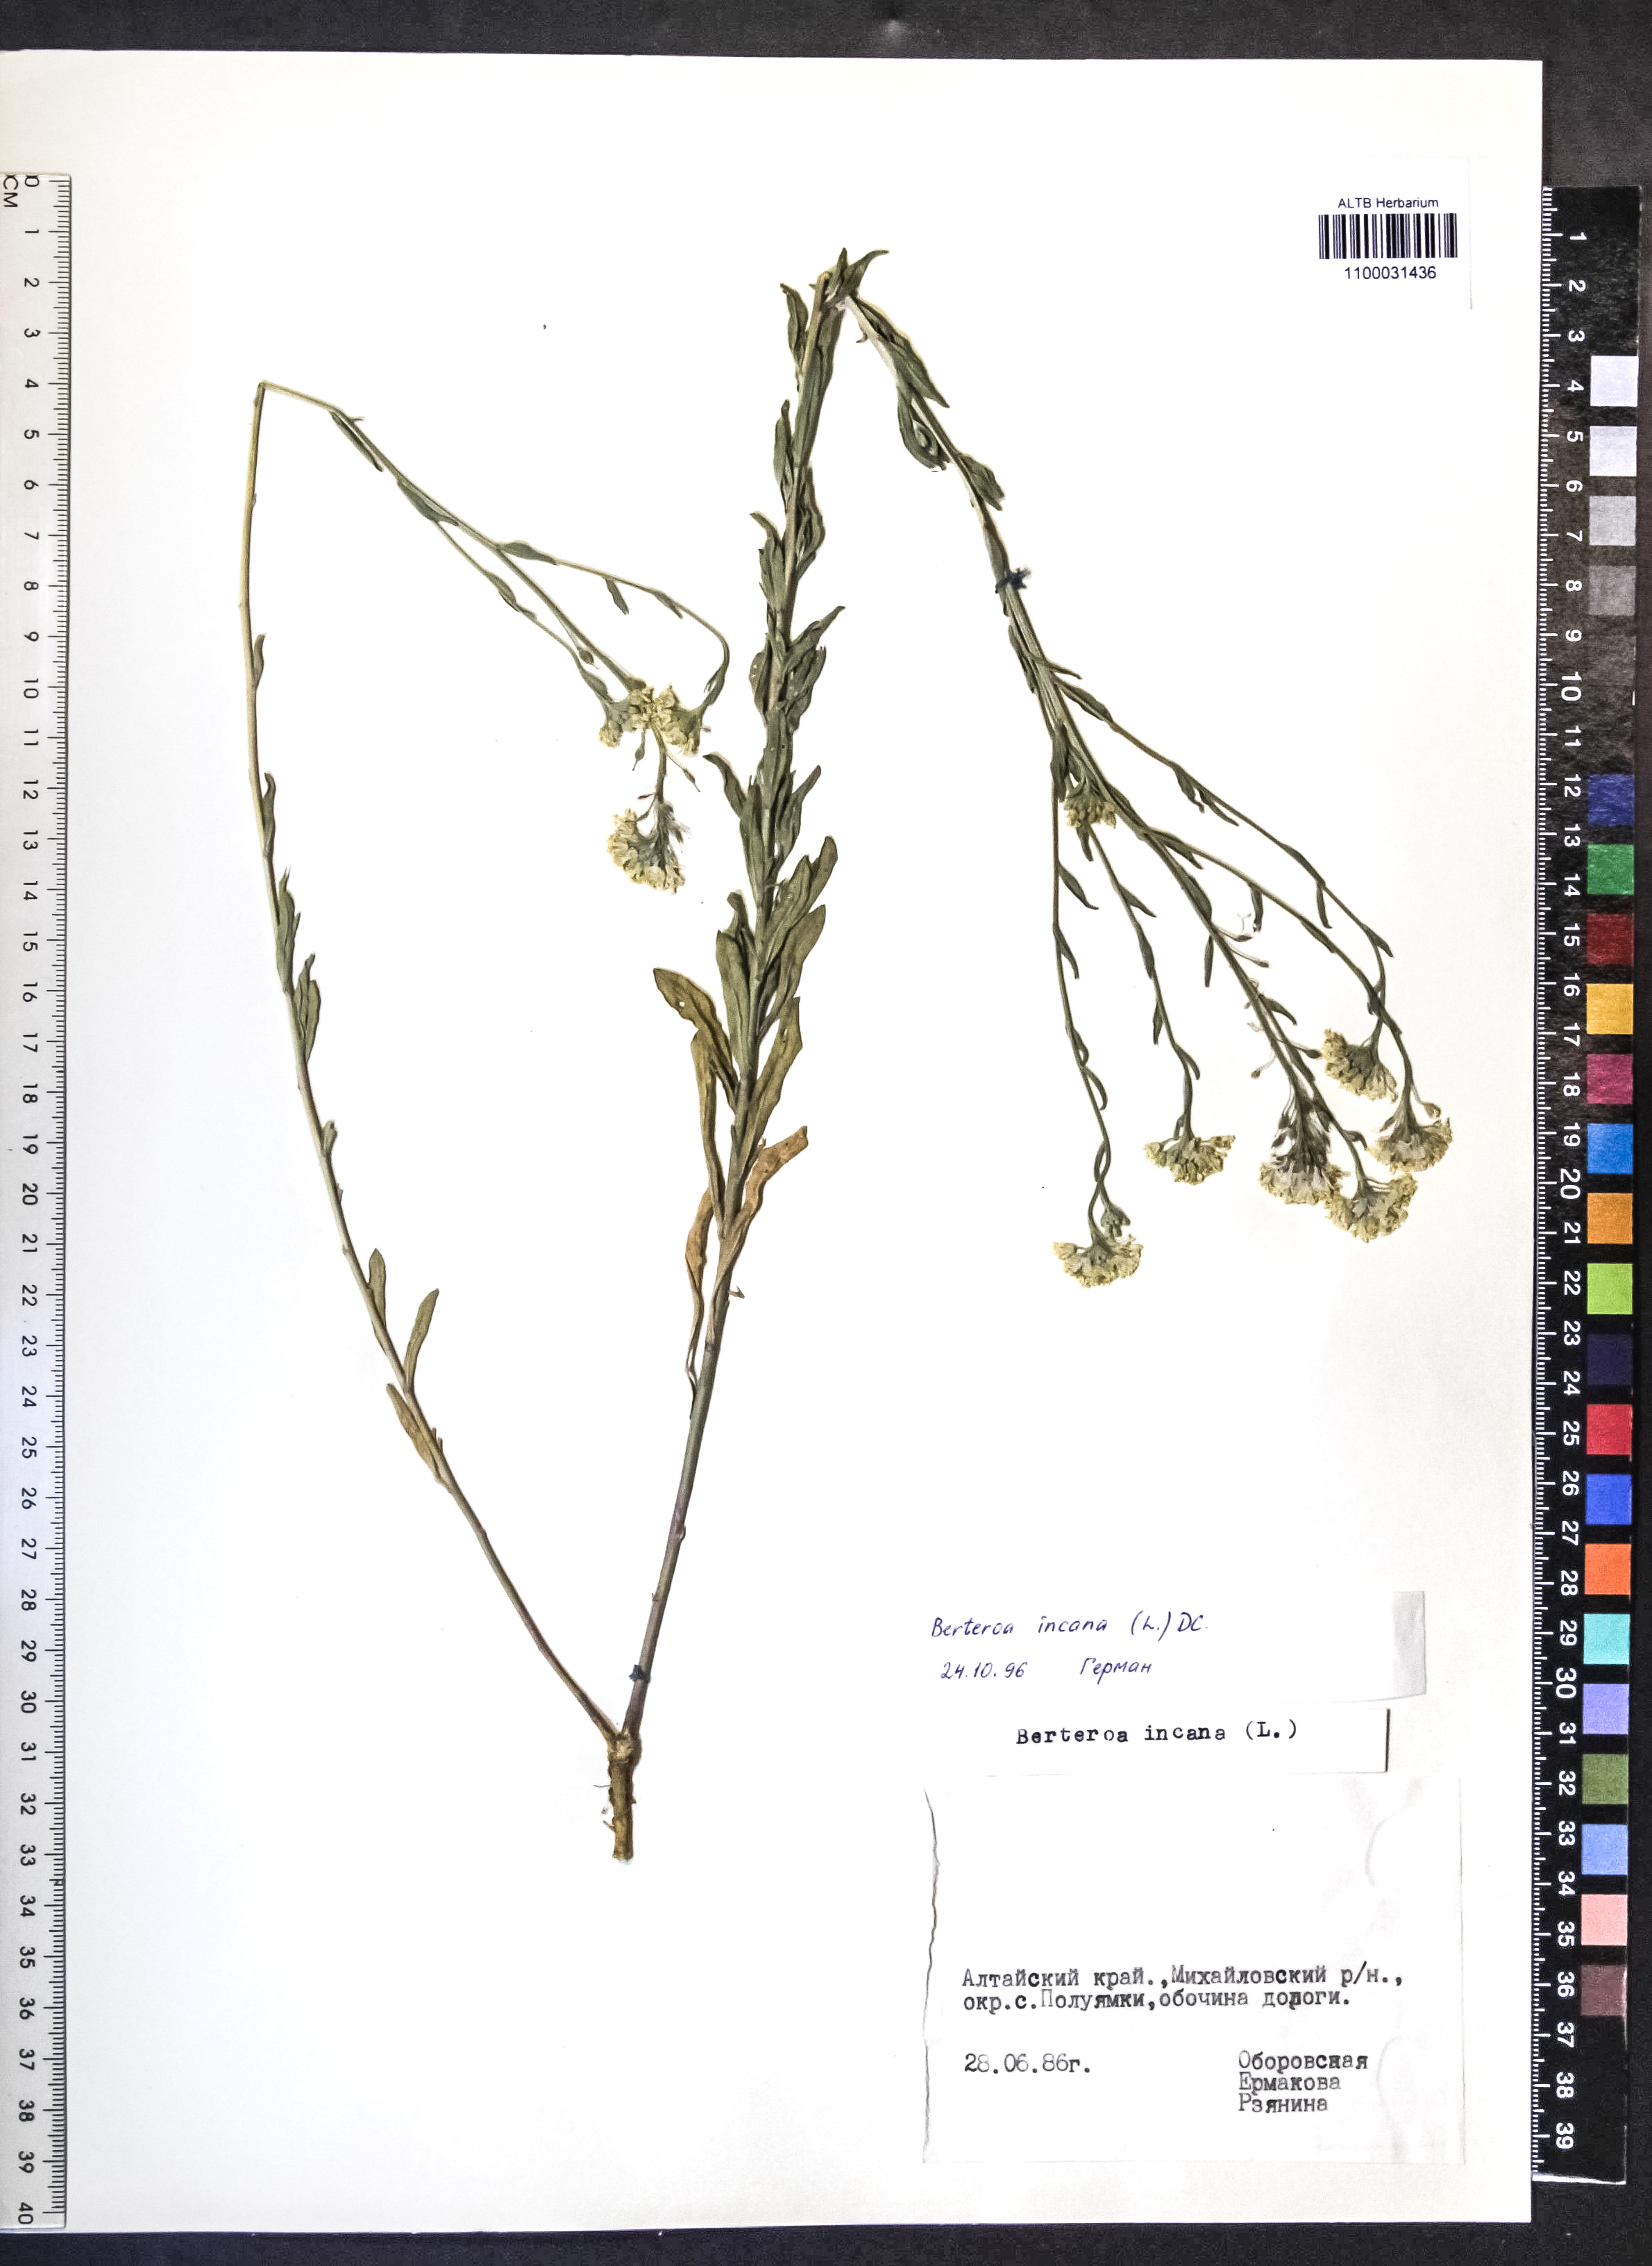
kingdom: Plantae
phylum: Tracheophyta
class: Magnoliopsida
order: Brassicales
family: Brassicaceae
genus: Berteroa
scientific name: Berteroa incana
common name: Hoary alison
